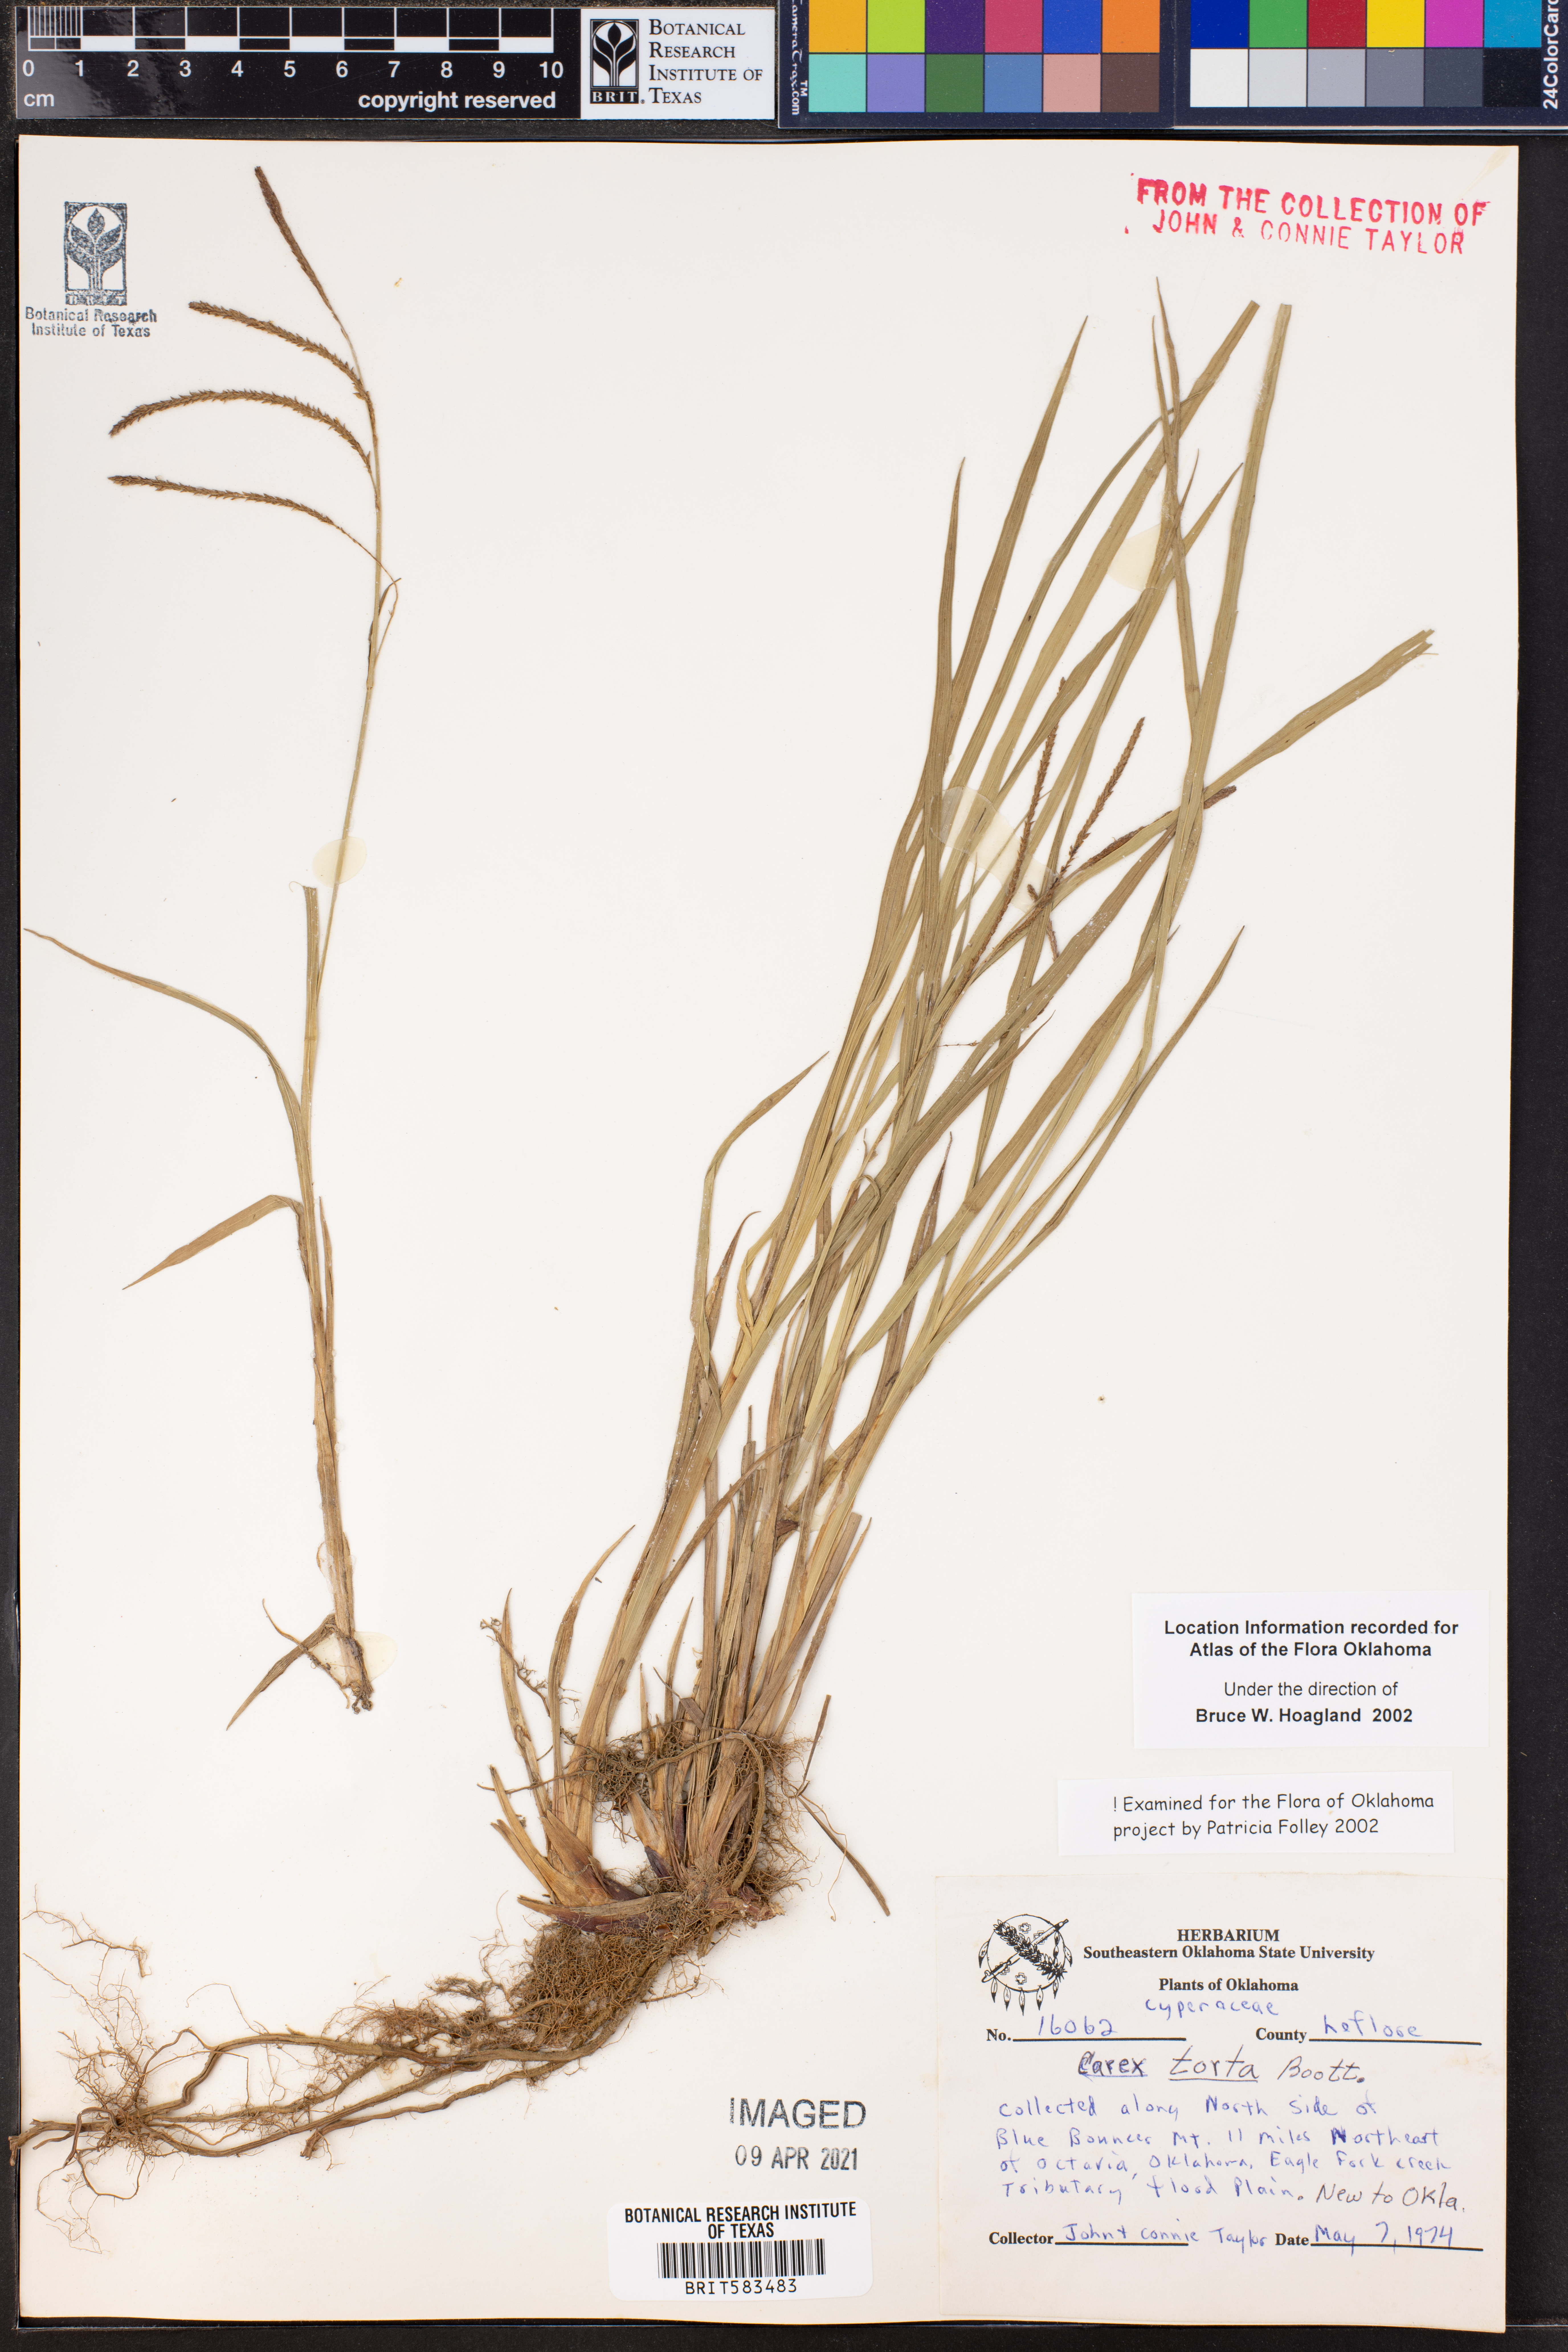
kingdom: Plantae
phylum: Tracheophyta
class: Liliopsida
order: Poales
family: Cyperaceae
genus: Carex
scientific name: Carex torta
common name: Twisted sedge
